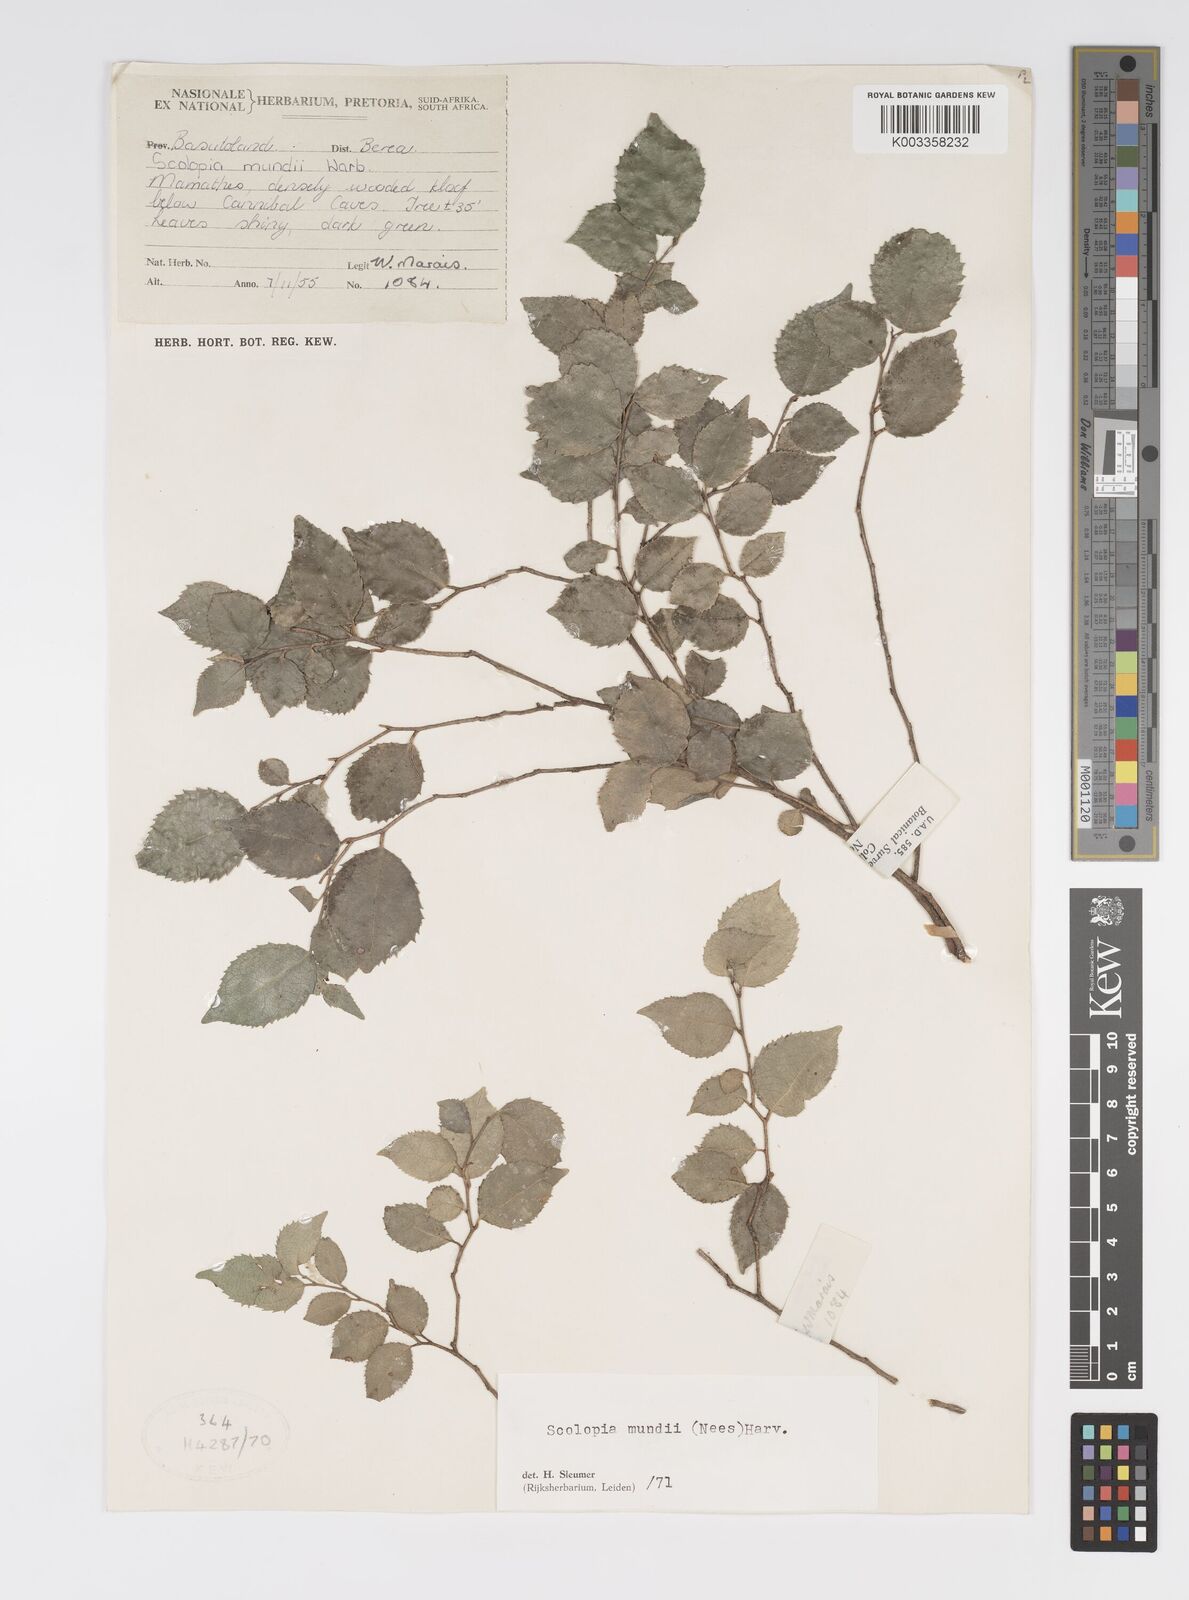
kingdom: Plantae
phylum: Tracheophyta
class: Magnoliopsida
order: Malpighiales
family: Salicaceae
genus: Scolopia
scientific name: Scolopia mundii
